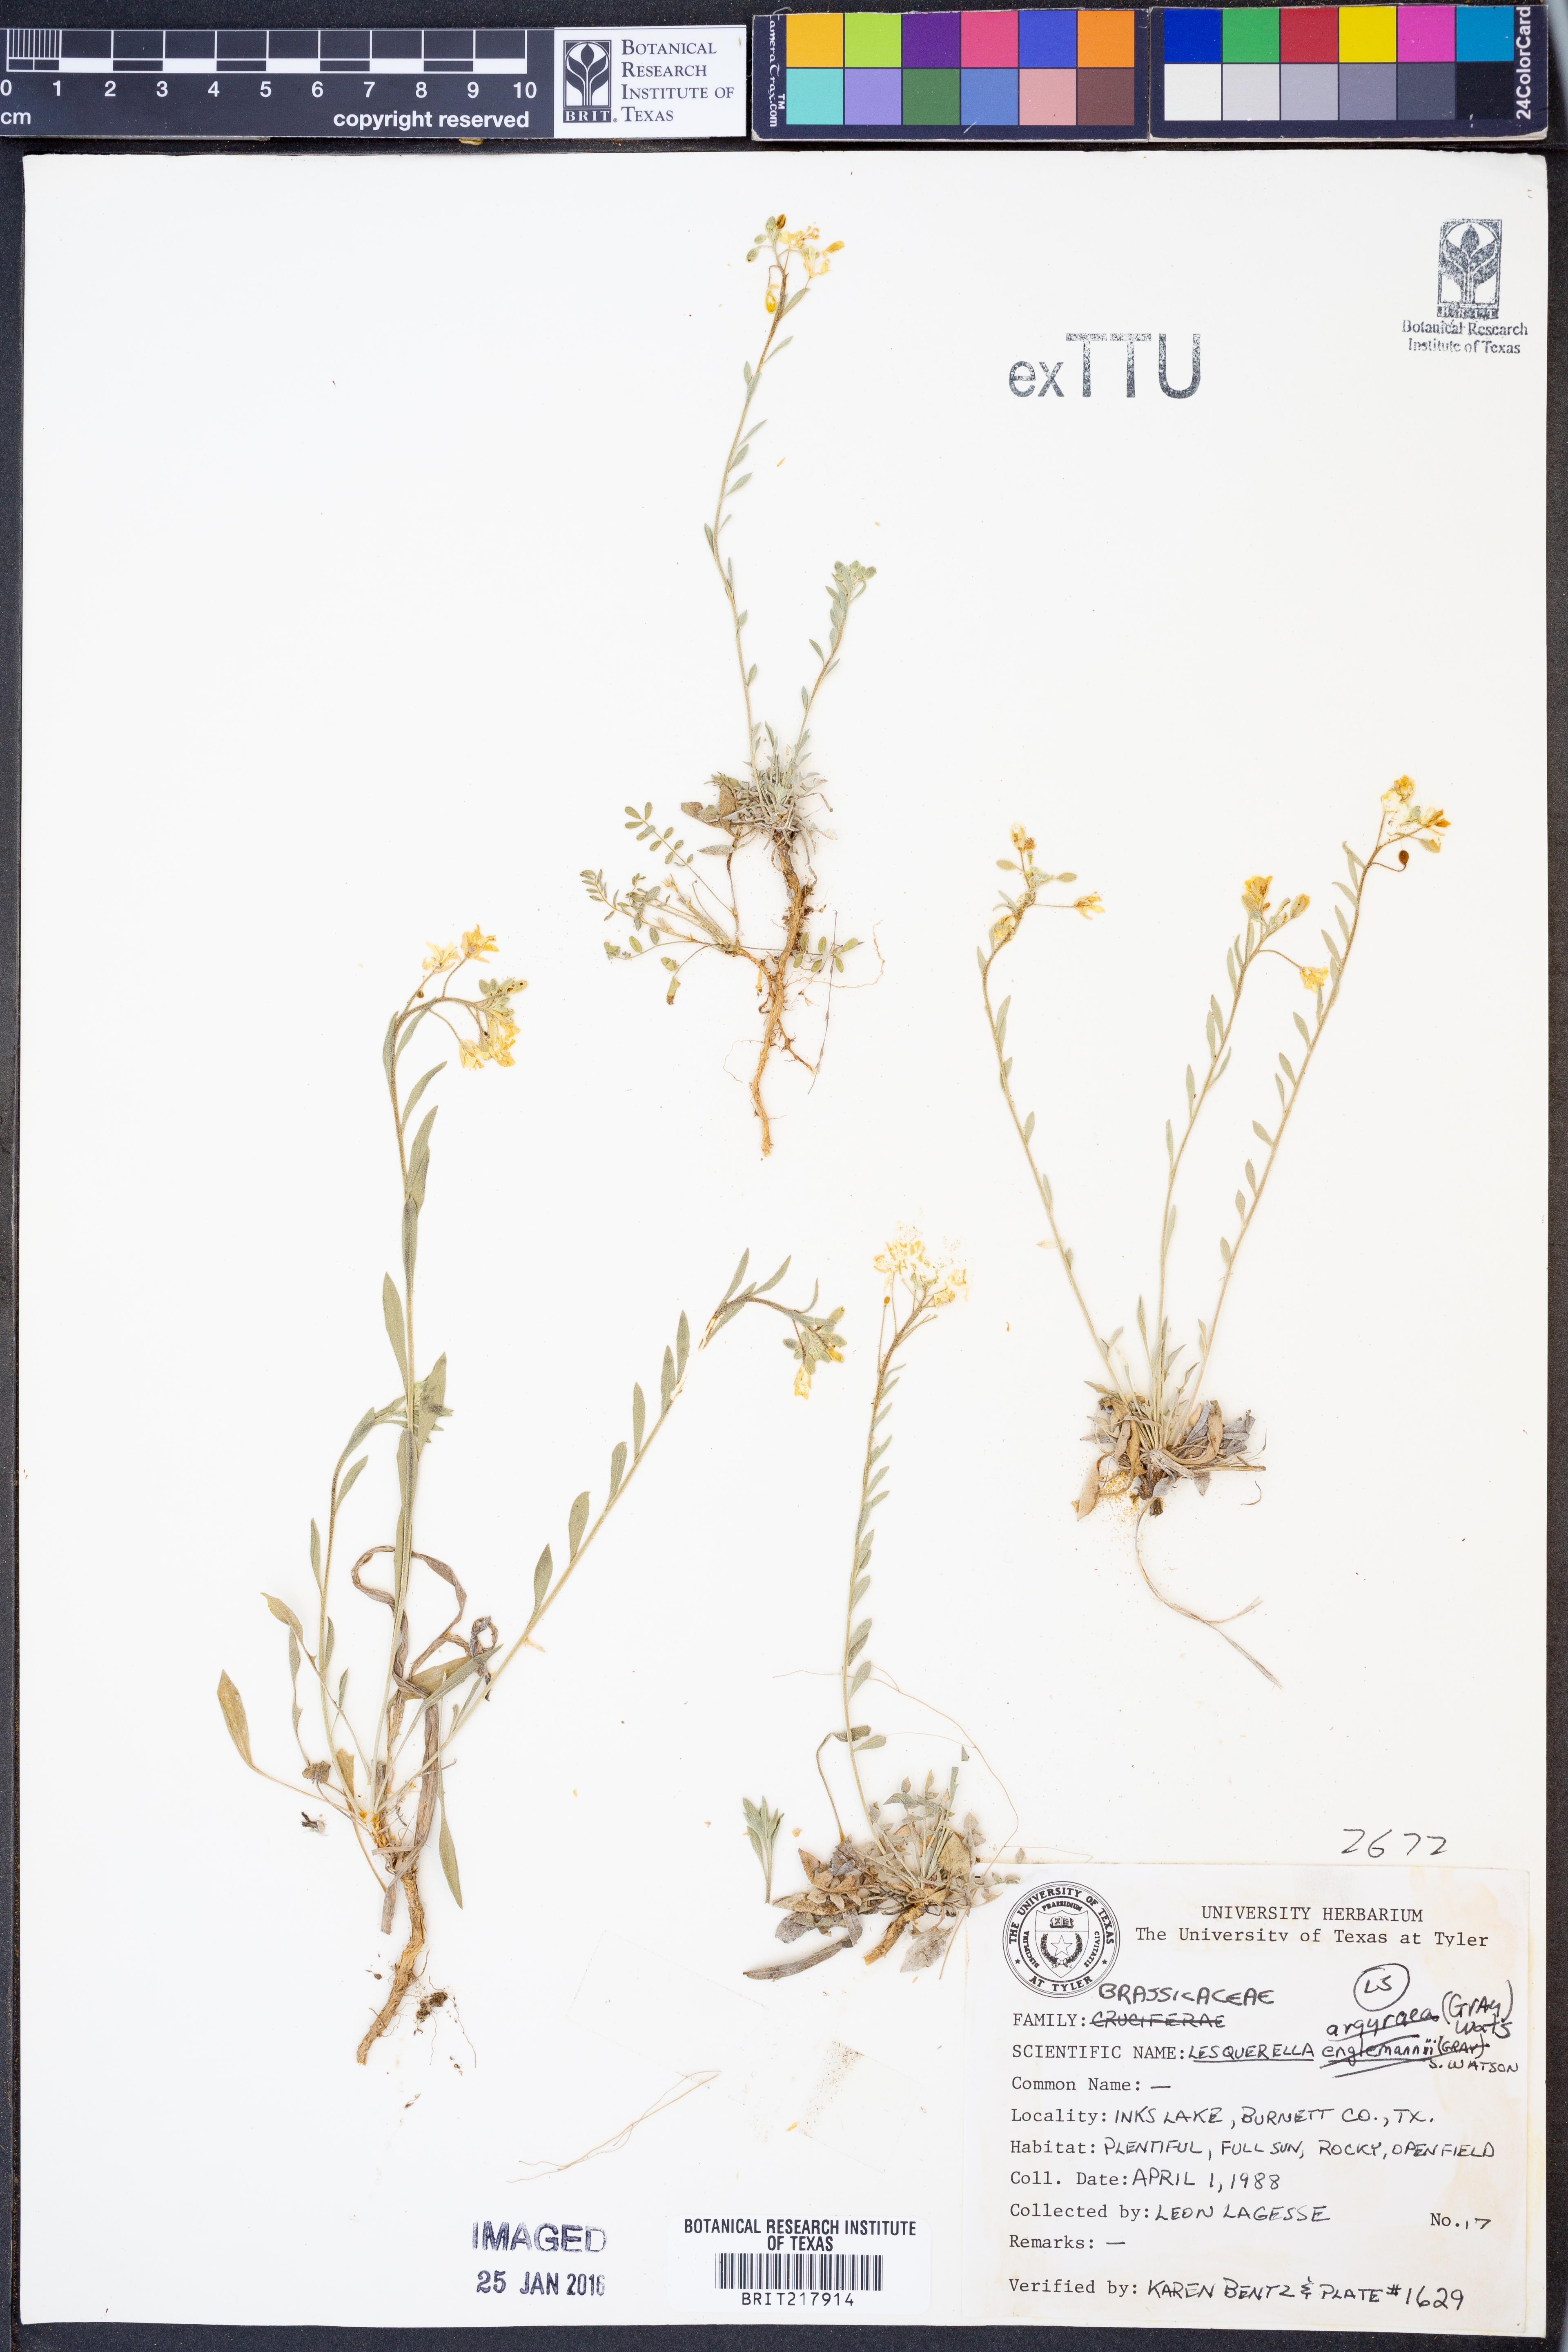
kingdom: Plantae
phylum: Tracheophyta
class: Magnoliopsida
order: Brassicales
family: Brassicaceae
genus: Physaria
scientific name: Physaria argyraea
